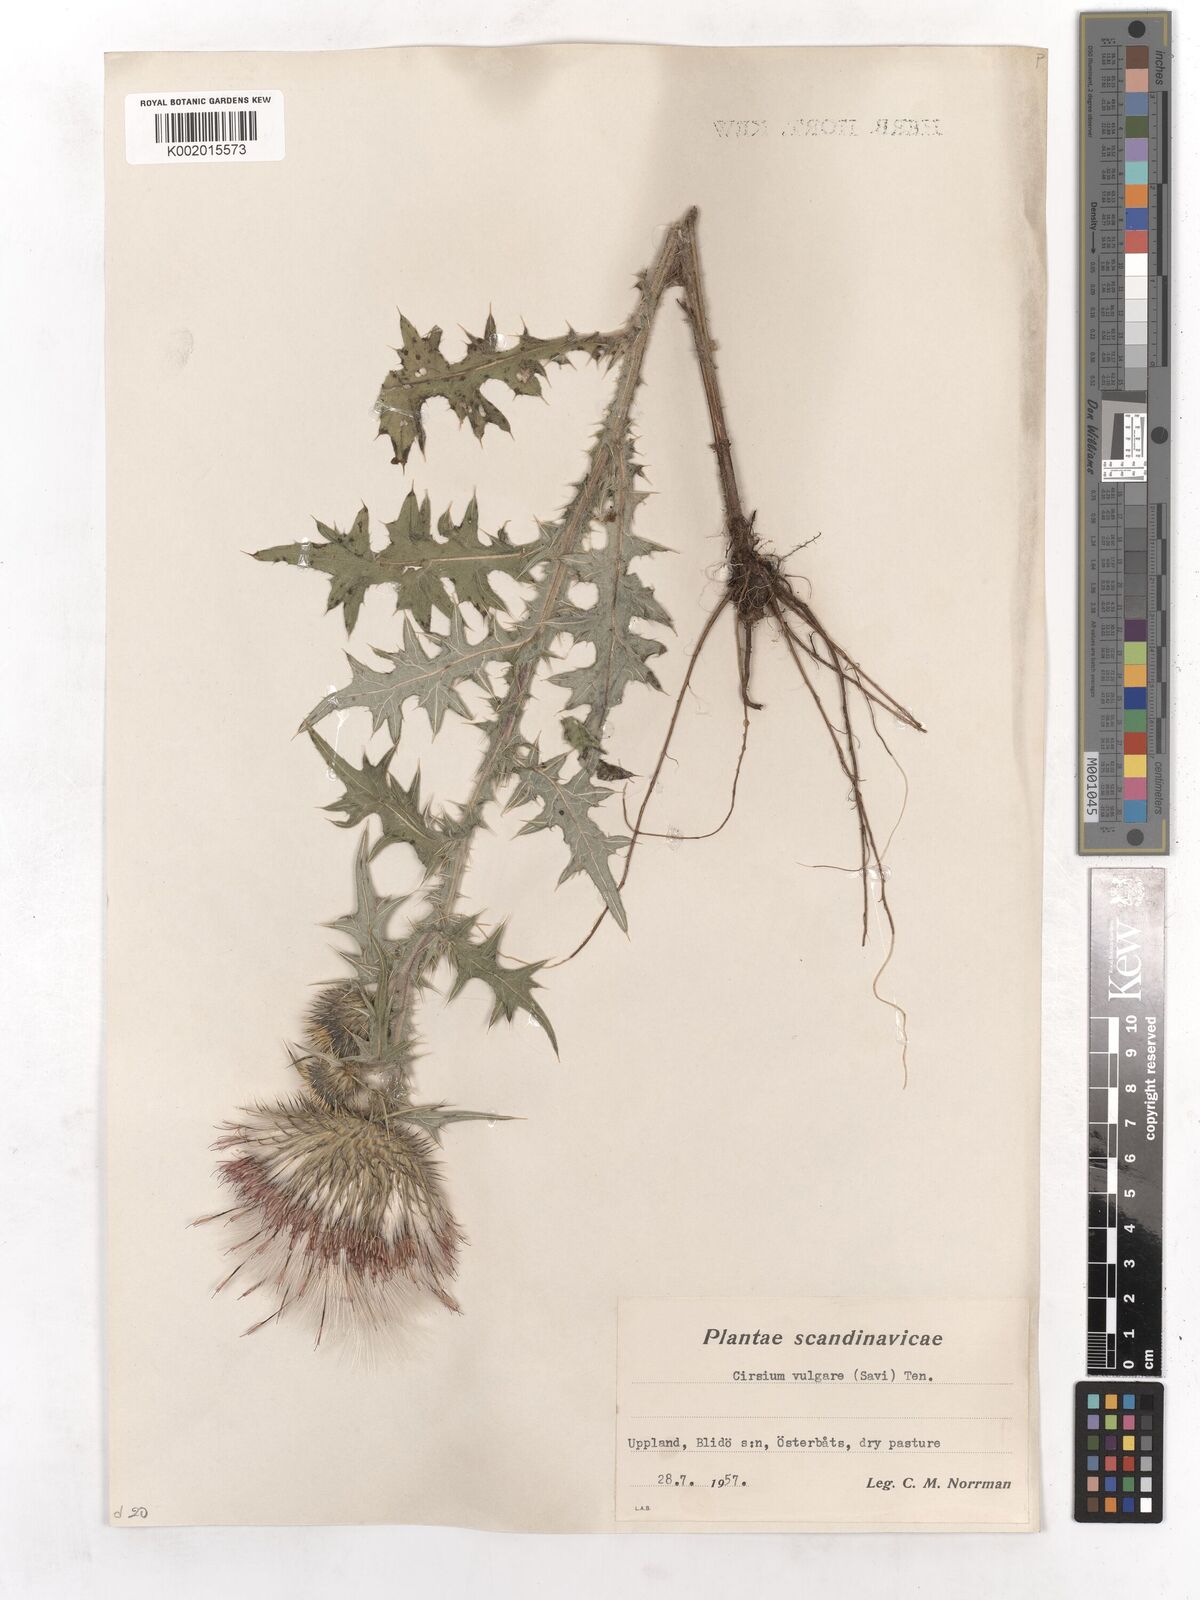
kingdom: Plantae
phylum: Tracheophyta
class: Magnoliopsida
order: Asterales
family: Asteraceae
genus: Cirsium
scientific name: Cirsium vulgare
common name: Bull thistle
